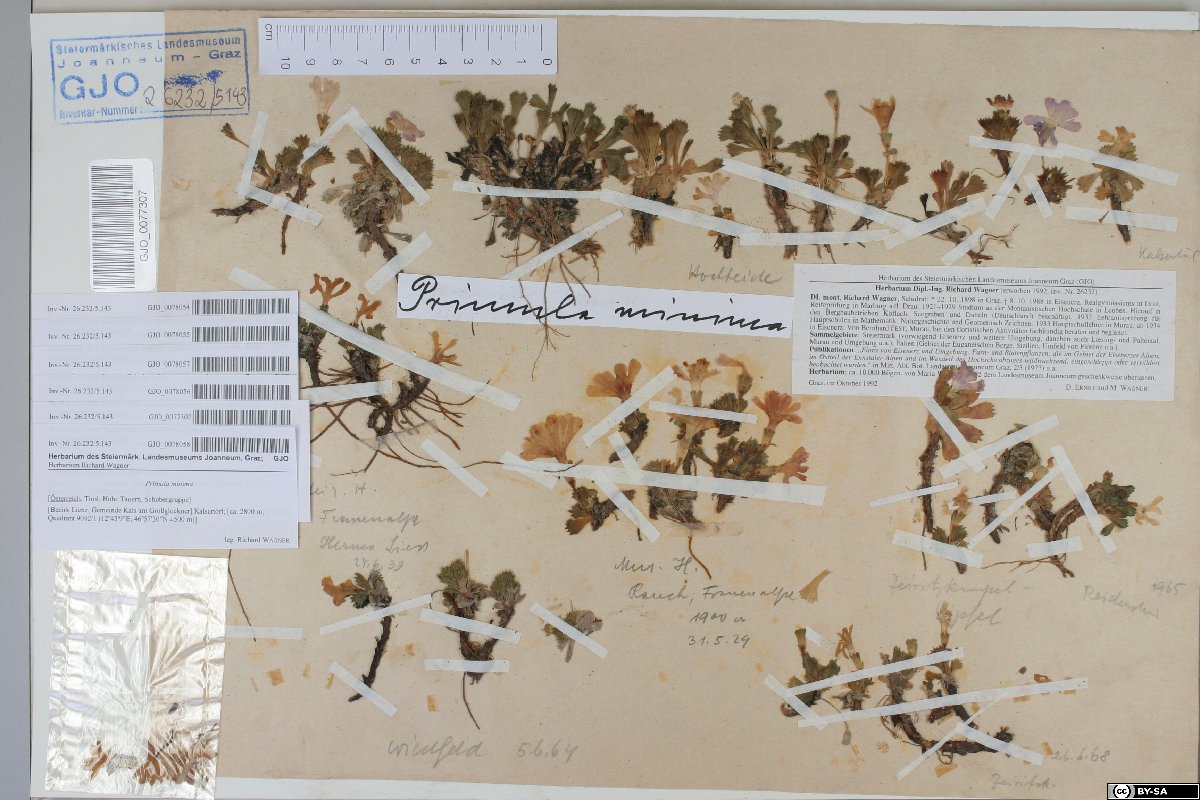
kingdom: Plantae
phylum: Tracheophyta
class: Magnoliopsida
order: Ericales
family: Primulaceae
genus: Primula
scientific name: Primula minima
